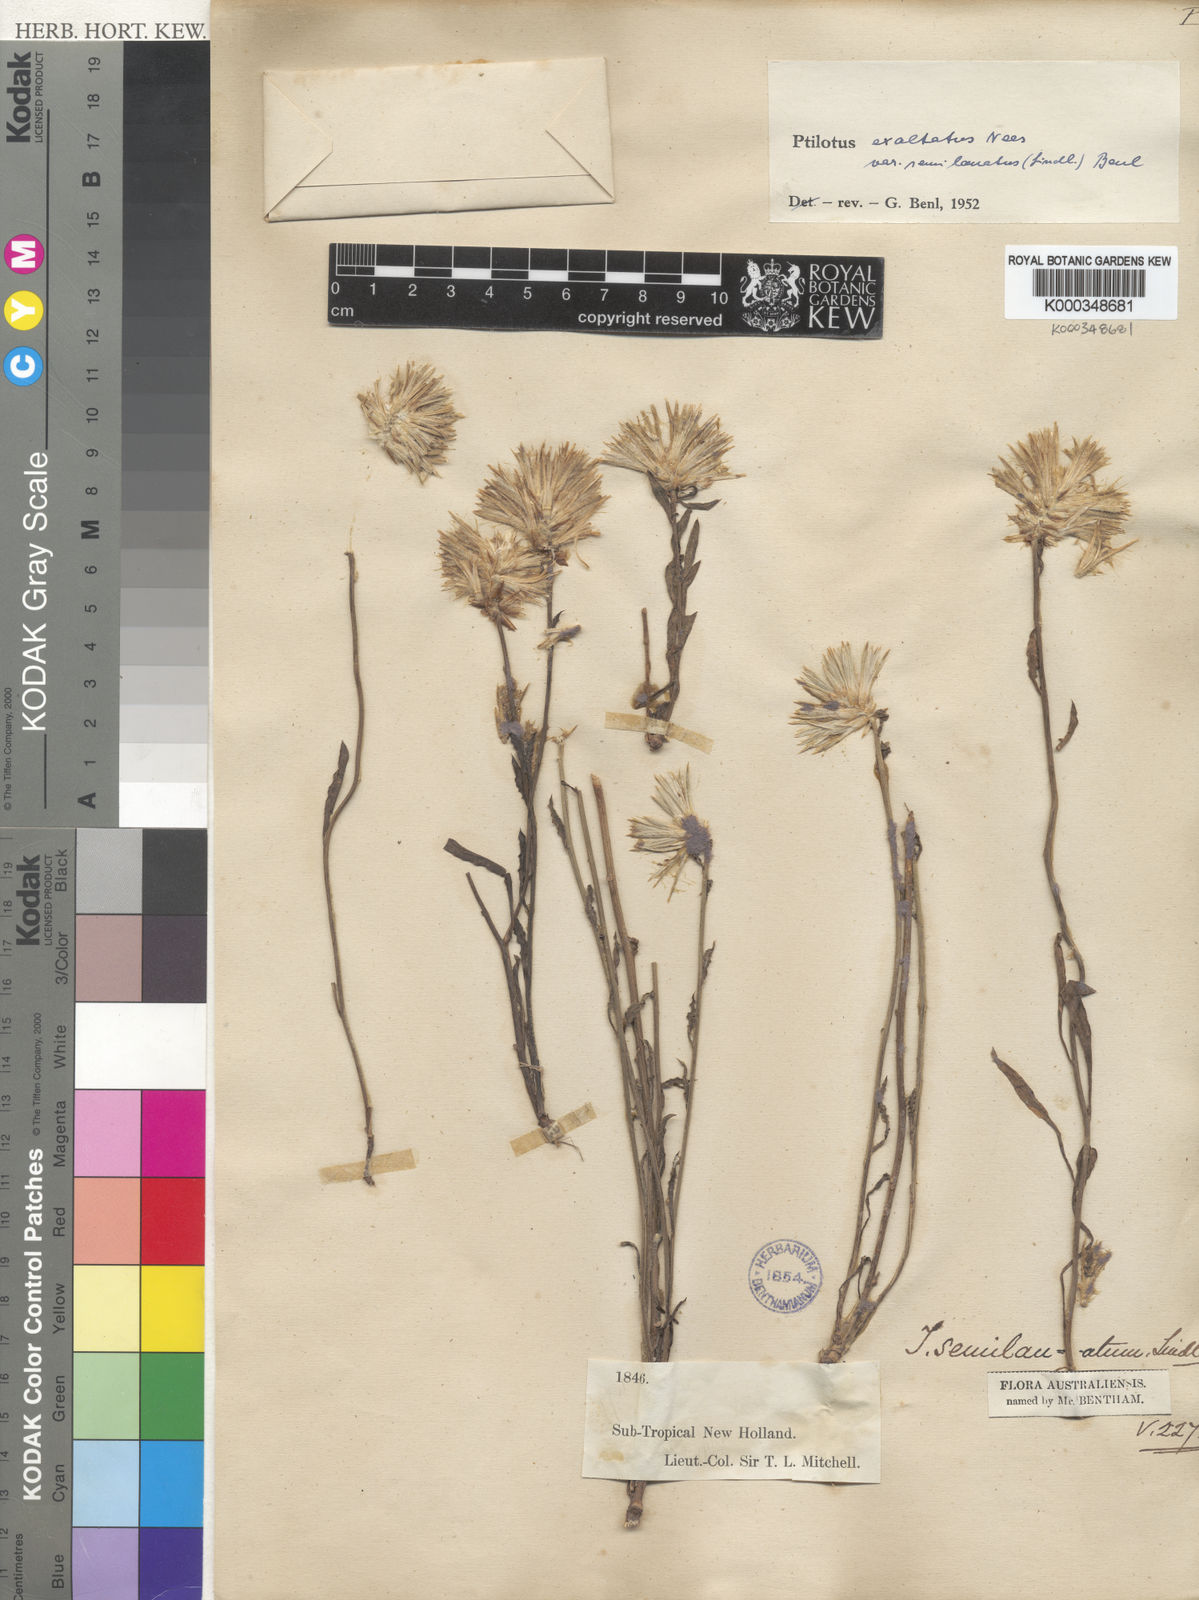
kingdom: Plantae
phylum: Tracheophyta
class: Magnoliopsida
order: Caryophyllales
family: Amaranthaceae
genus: Ptilotus
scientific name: Ptilotus
